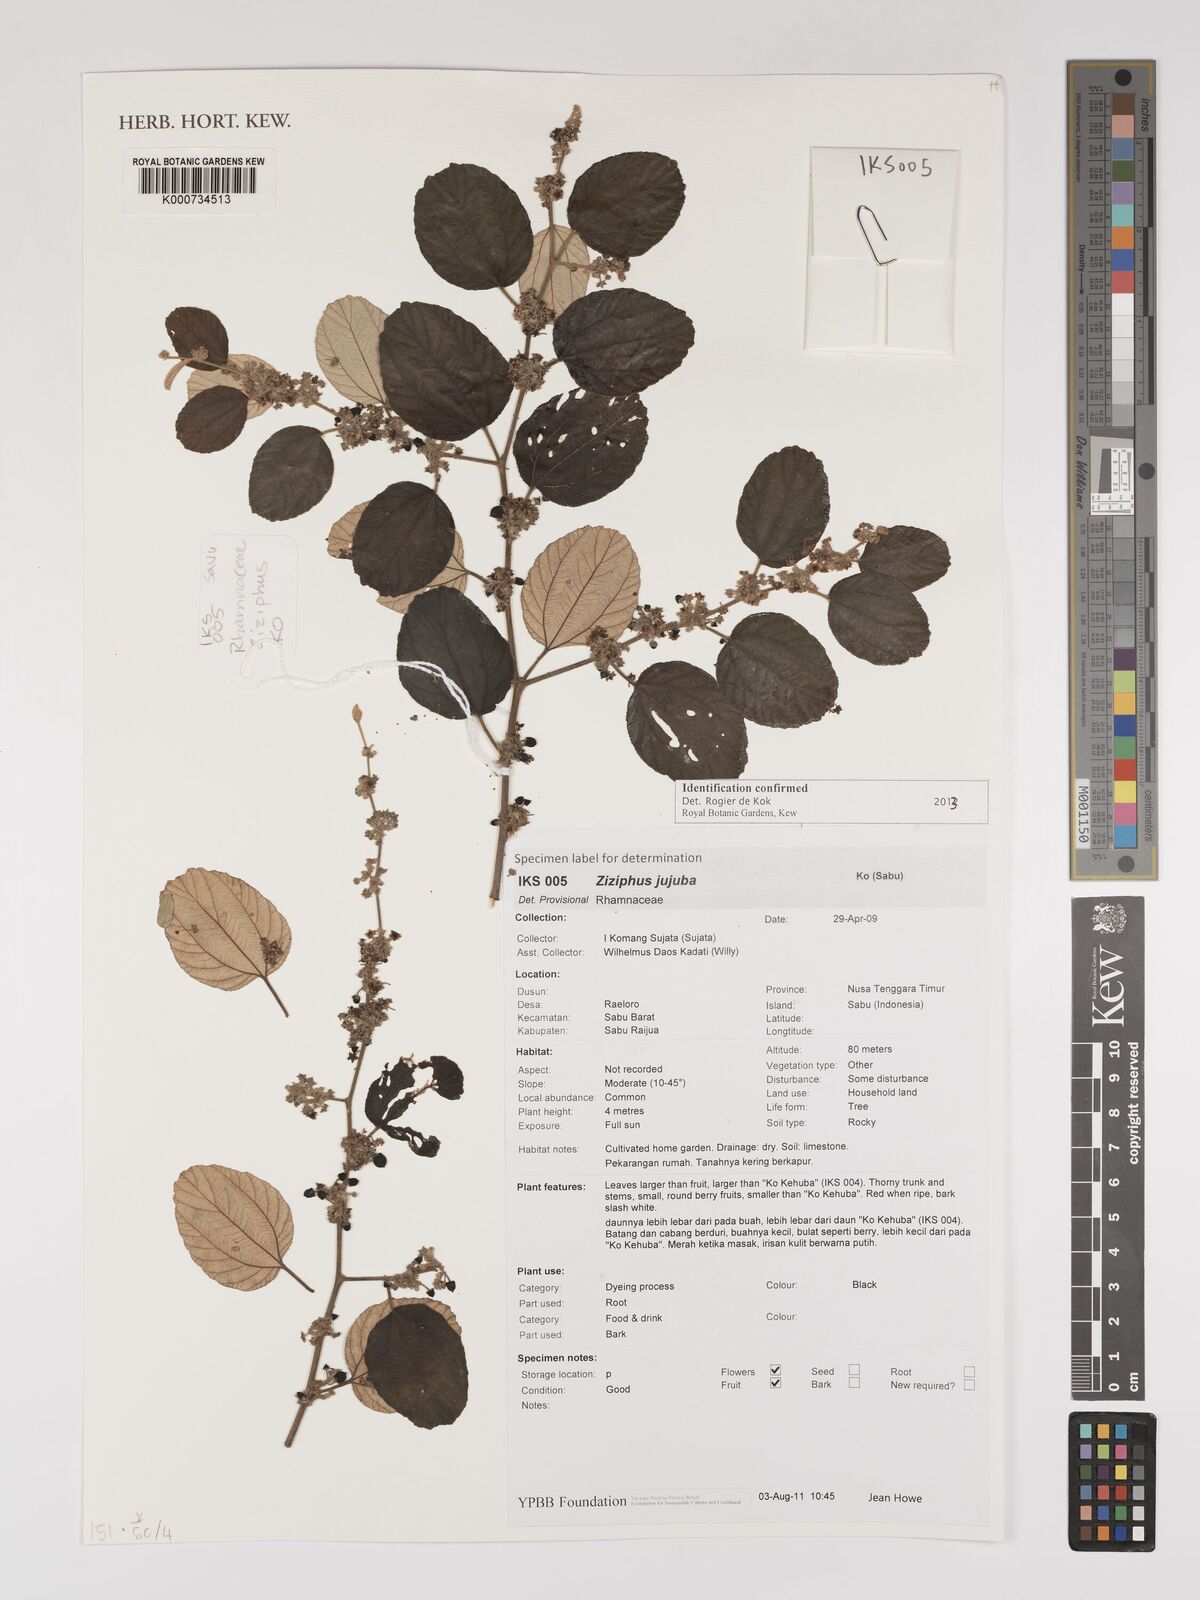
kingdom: Plantae
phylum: Tracheophyta
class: Magnoliopsida
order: Rosales
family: Rhamnaceae
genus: Ziziphus
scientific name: Ziziphus jujuba
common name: Jujube red date
